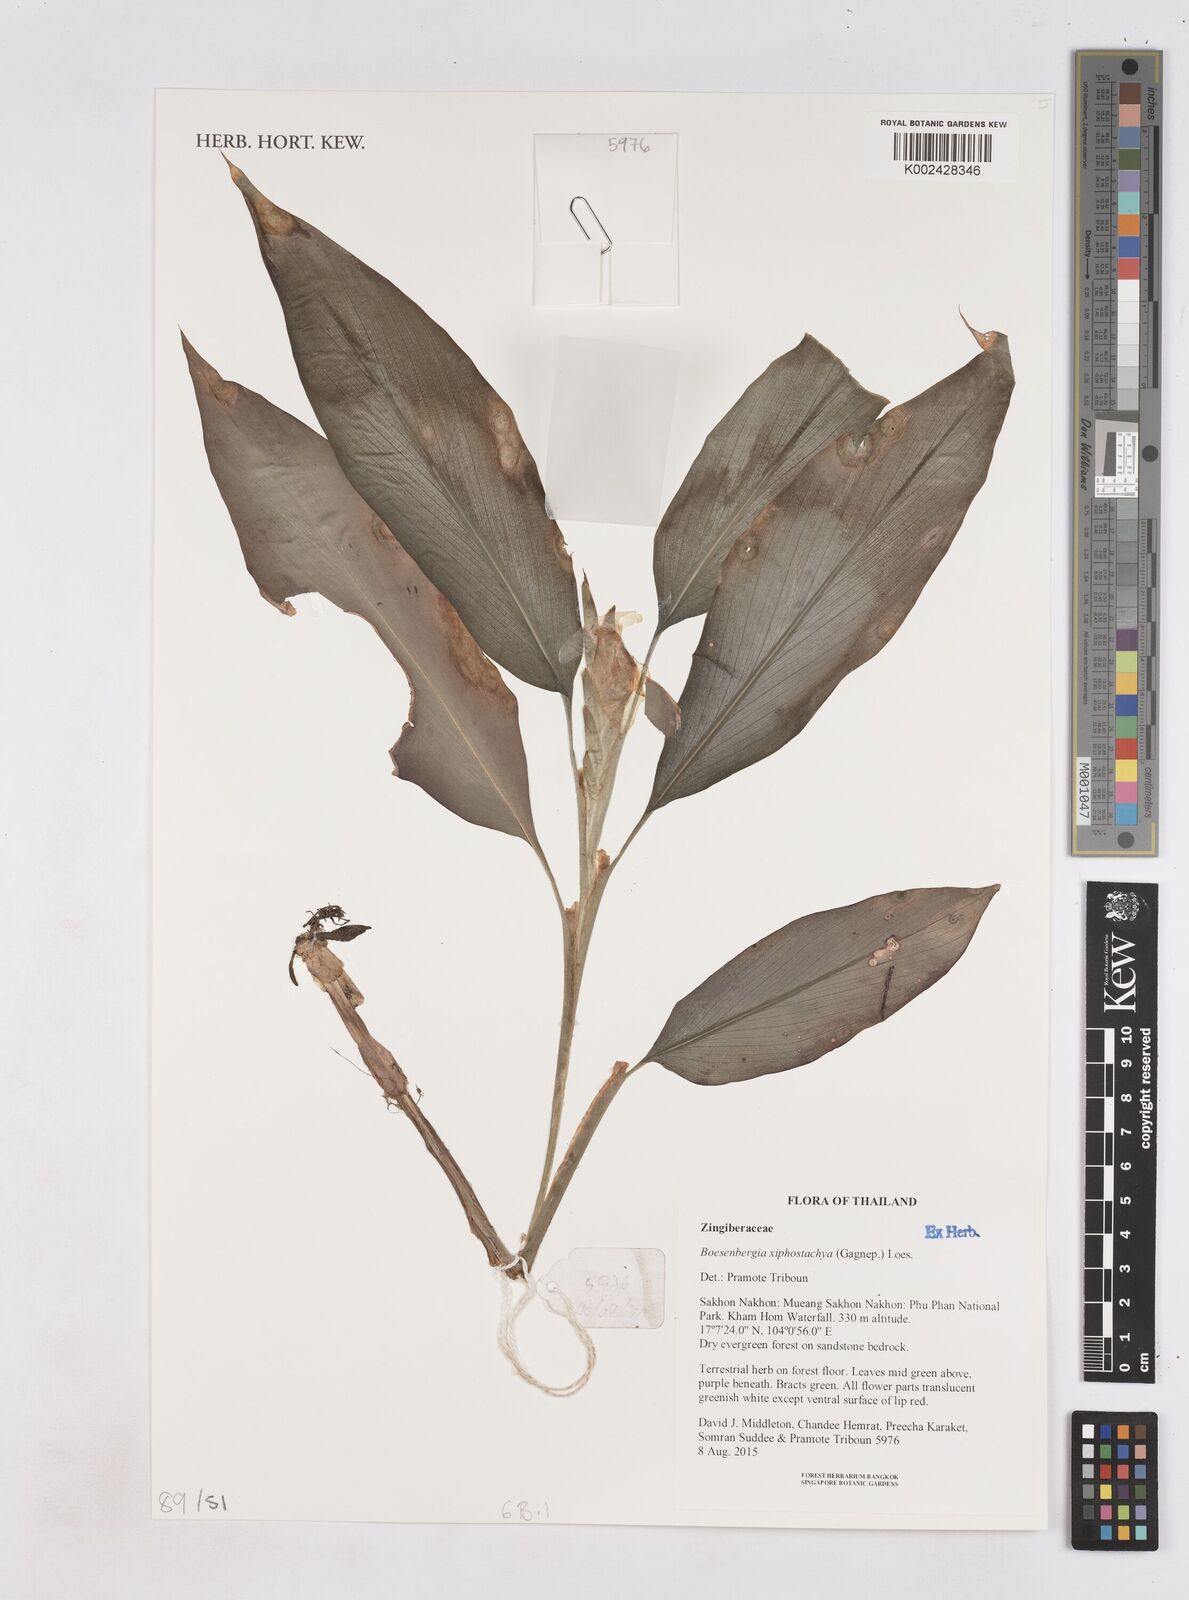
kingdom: Plantae
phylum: Tracheophyta
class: Liliopsida
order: Zingiberales
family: Zingiberaceae
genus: Boesenbergia
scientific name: Boesenbergia xiphostachya
